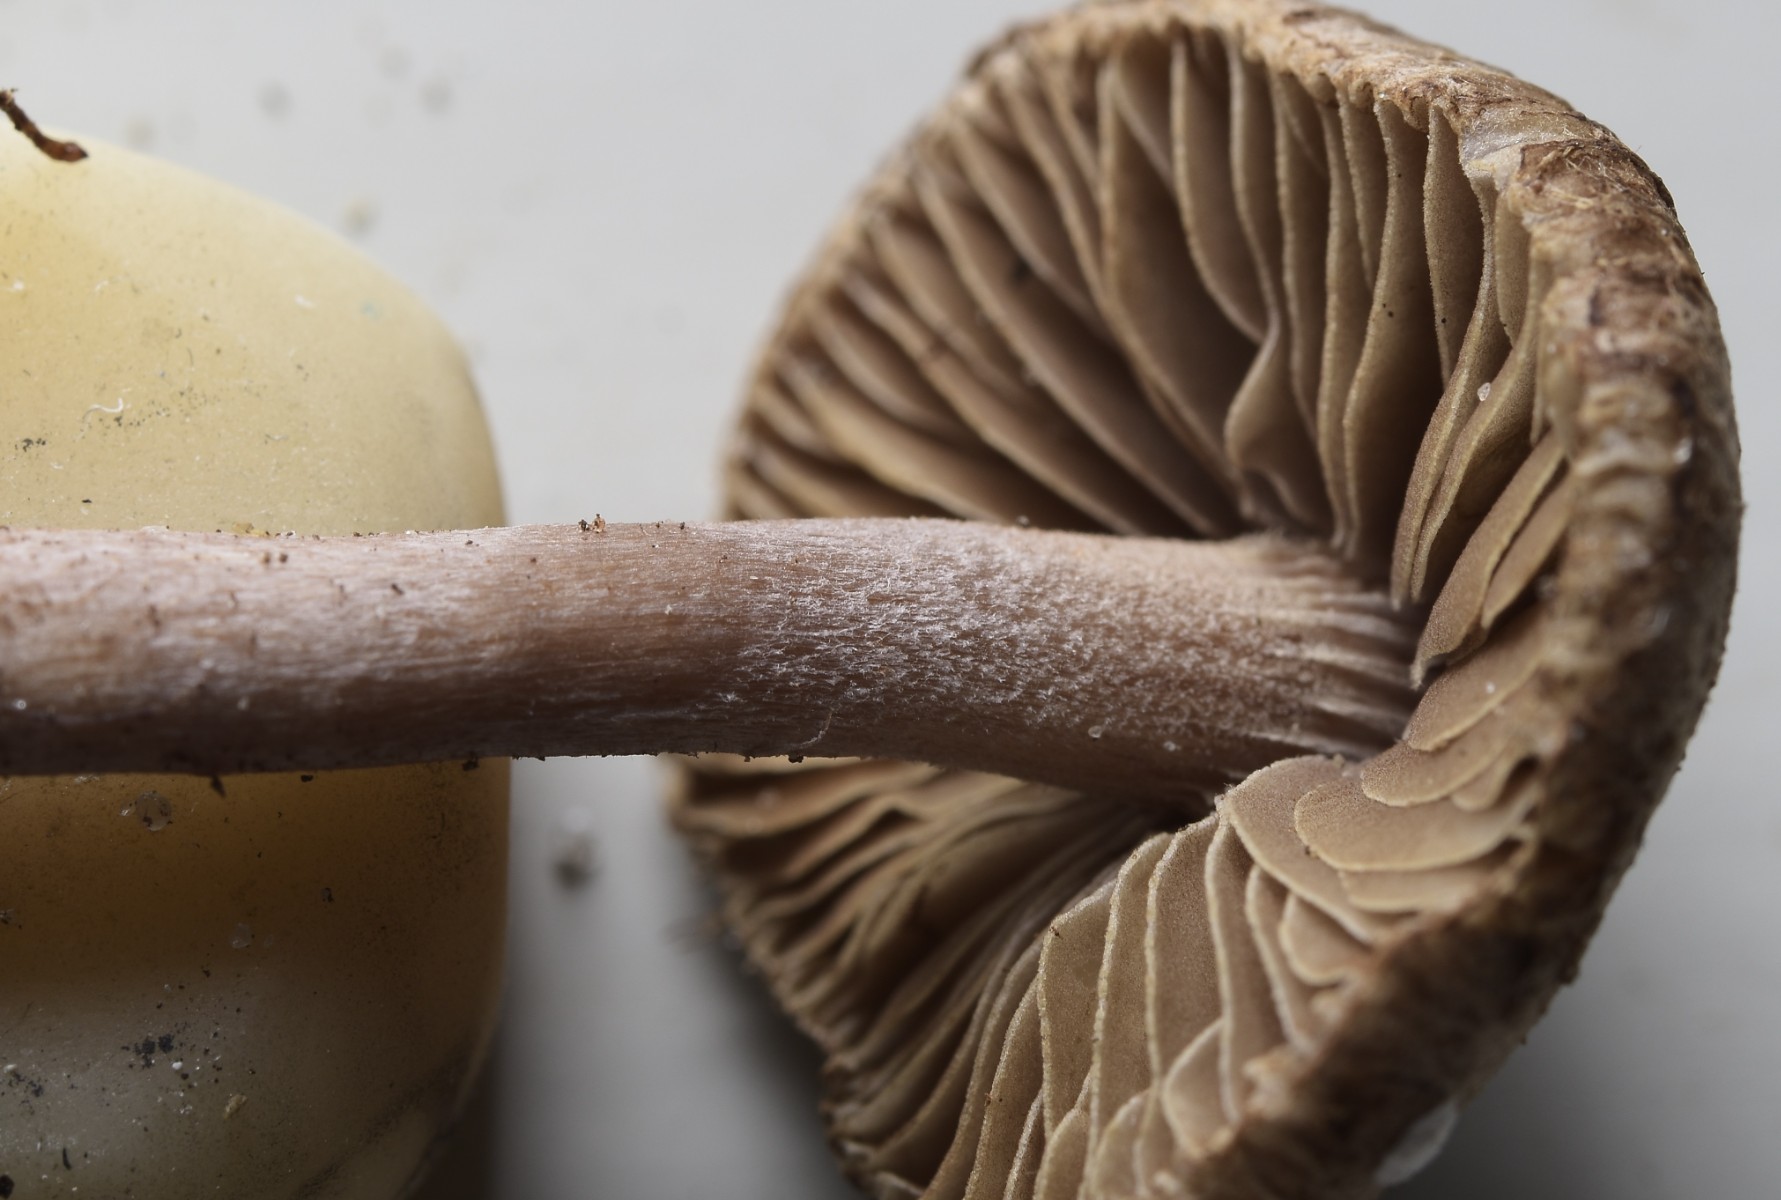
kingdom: Fungi
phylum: Basidiomycota
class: Agaricomycetes
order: Agaricales
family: Inocybaceae
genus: Inocybe
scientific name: Inocybe pusio
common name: violetfodet trævlhat
